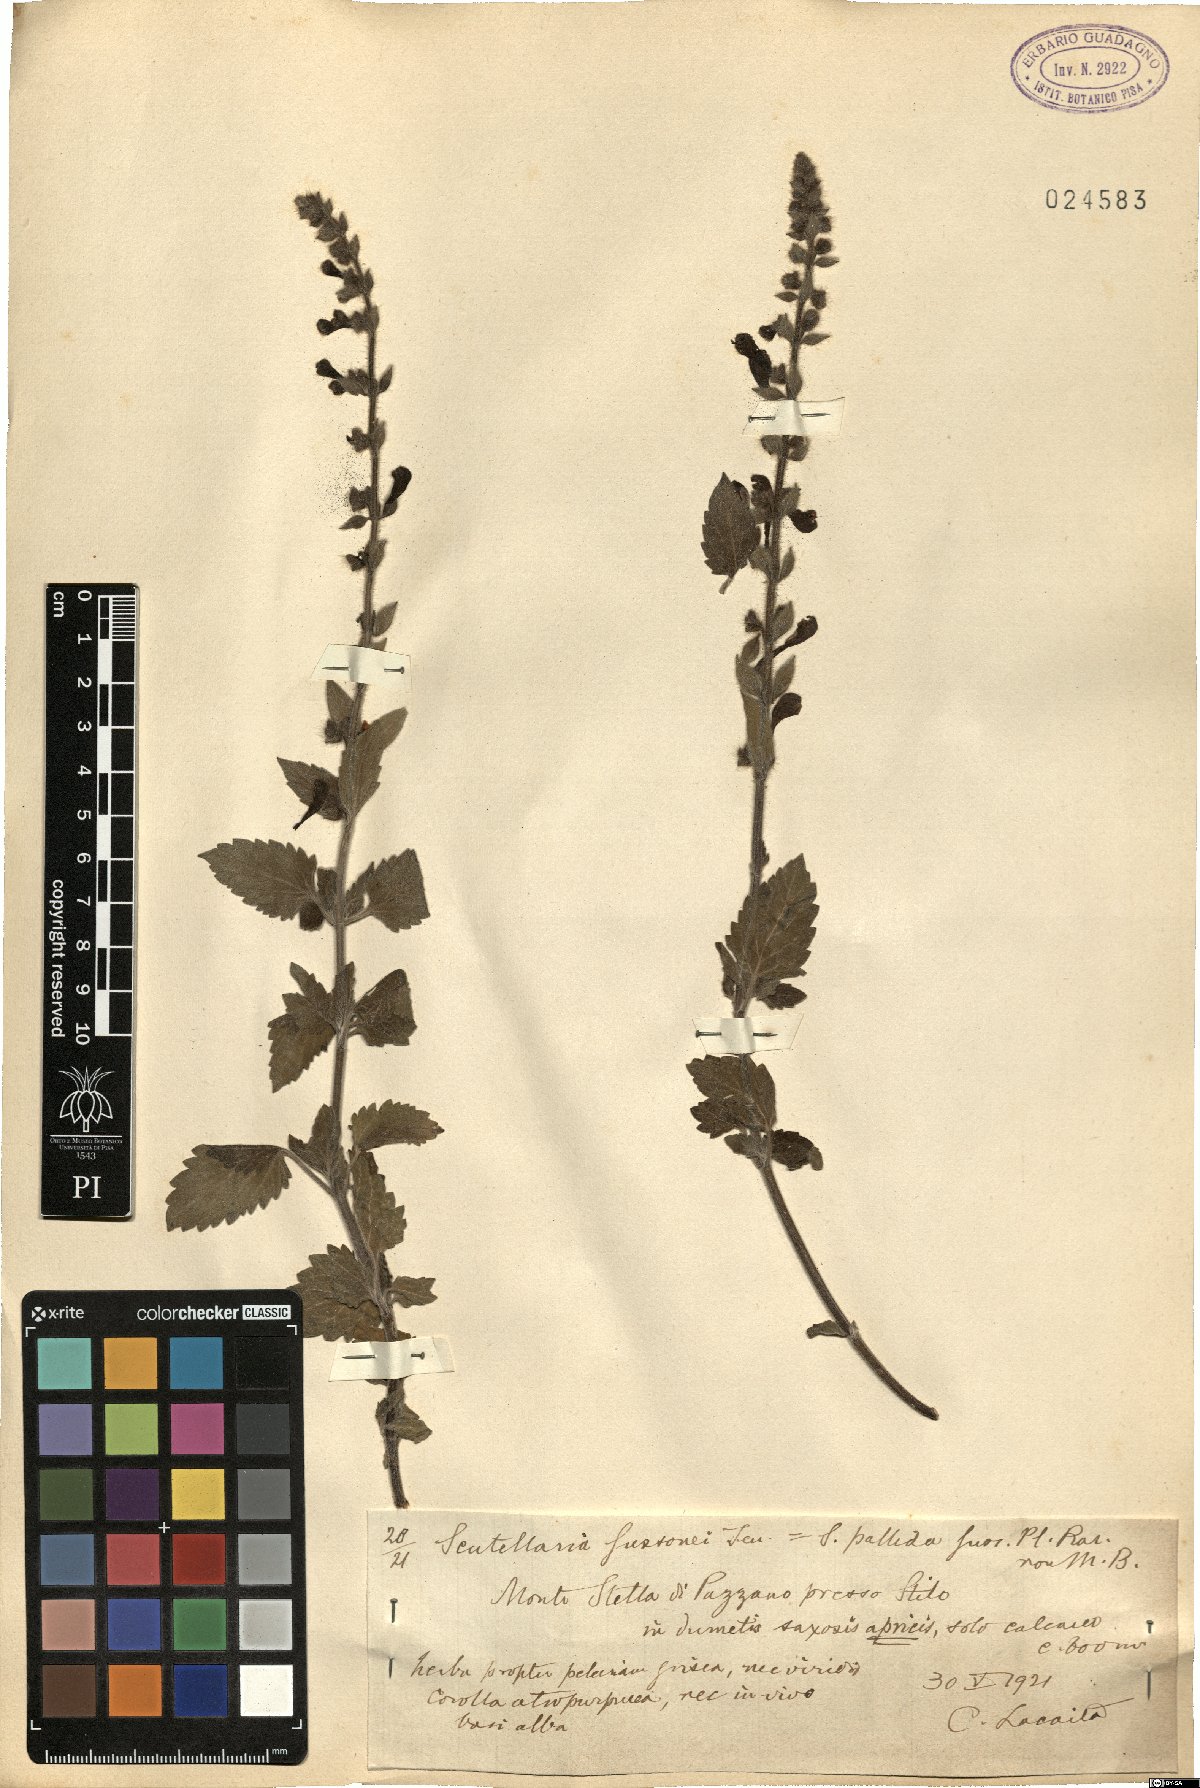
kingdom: Plantae
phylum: Tracheophyta
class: Magnoliopsida
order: Lamiales
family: Lamiaceae
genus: Scutellaria
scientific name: Scutellaria columnae
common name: Large skullcap
